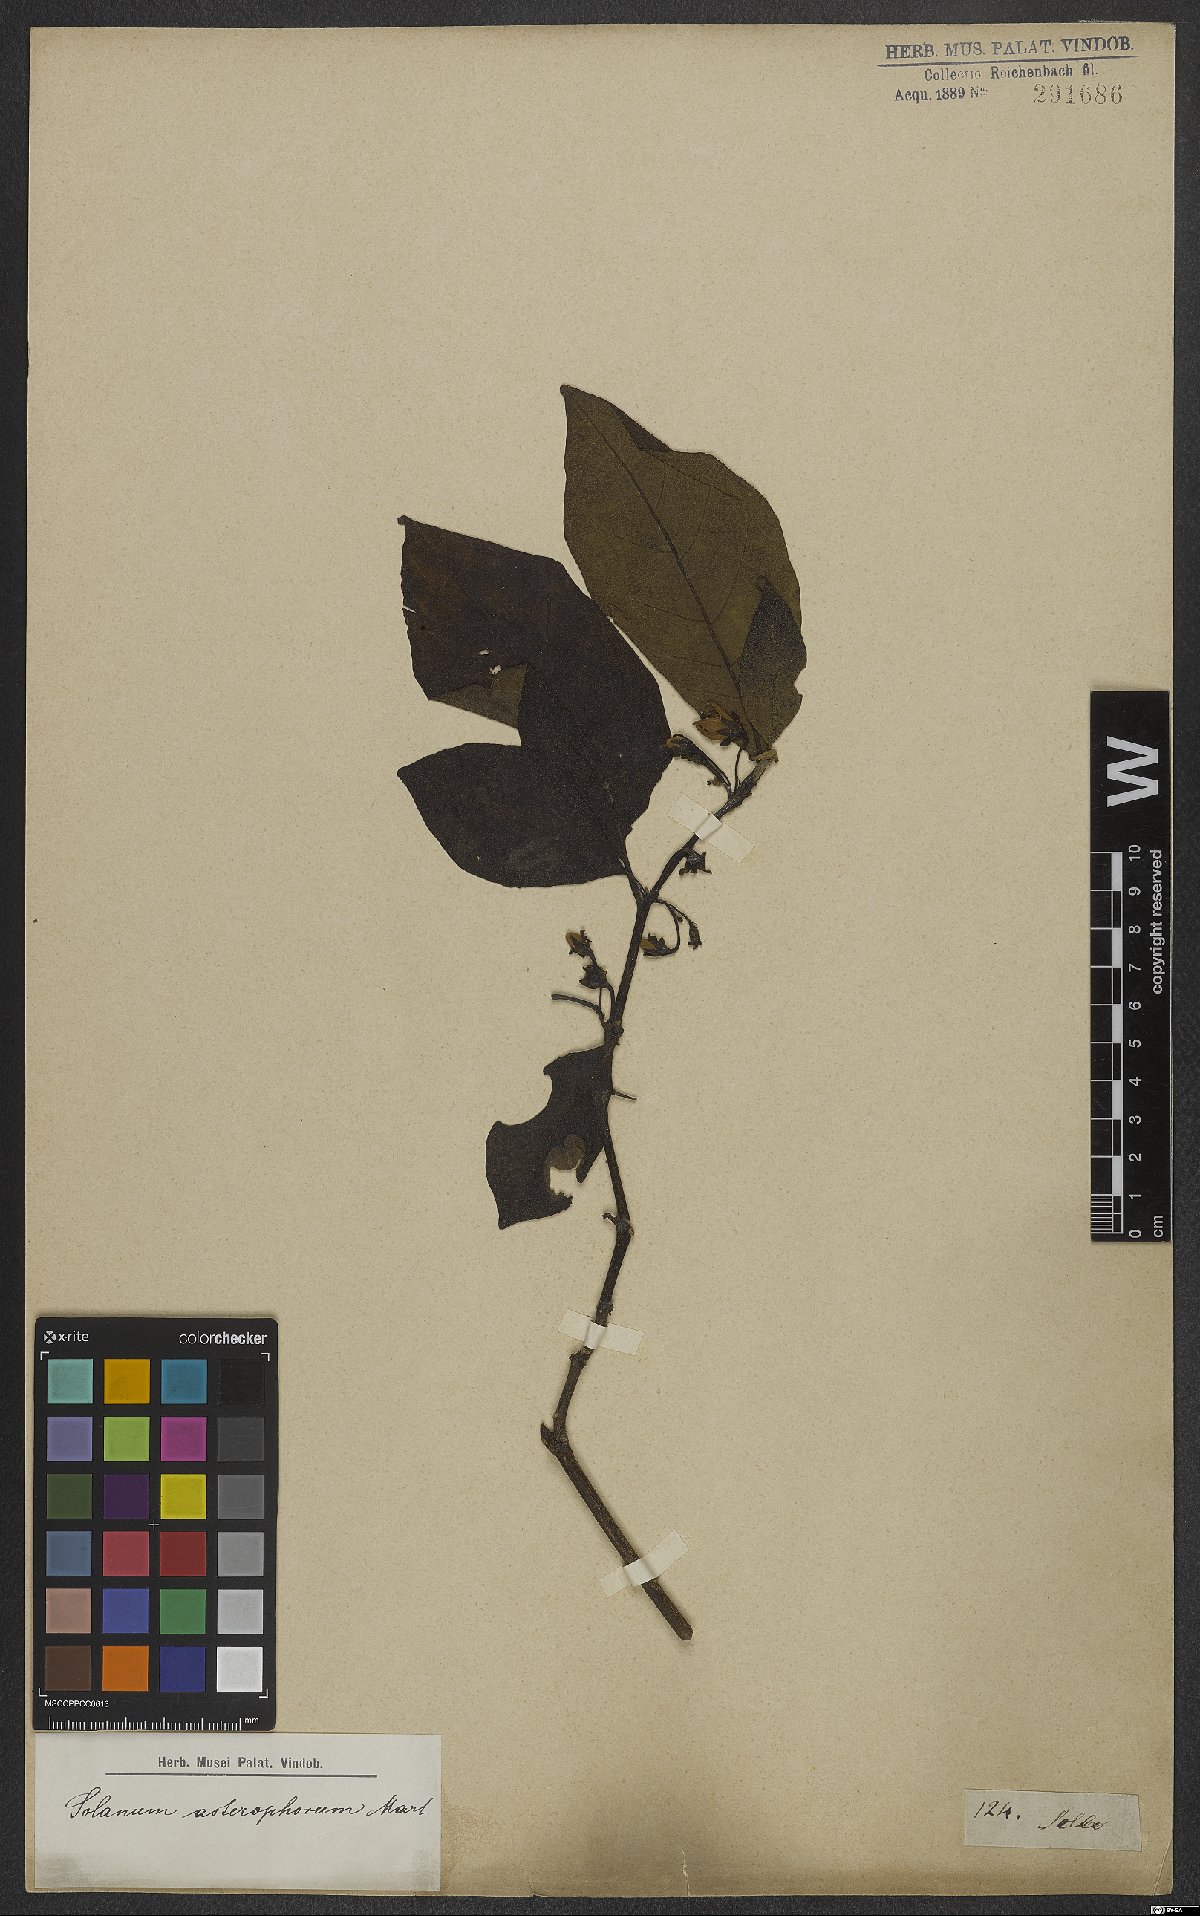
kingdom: Plantae
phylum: Tracheophyta
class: Magnoliopsida
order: Solanales
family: Solanaceae
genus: Solanum
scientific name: Solanum asterophorum
